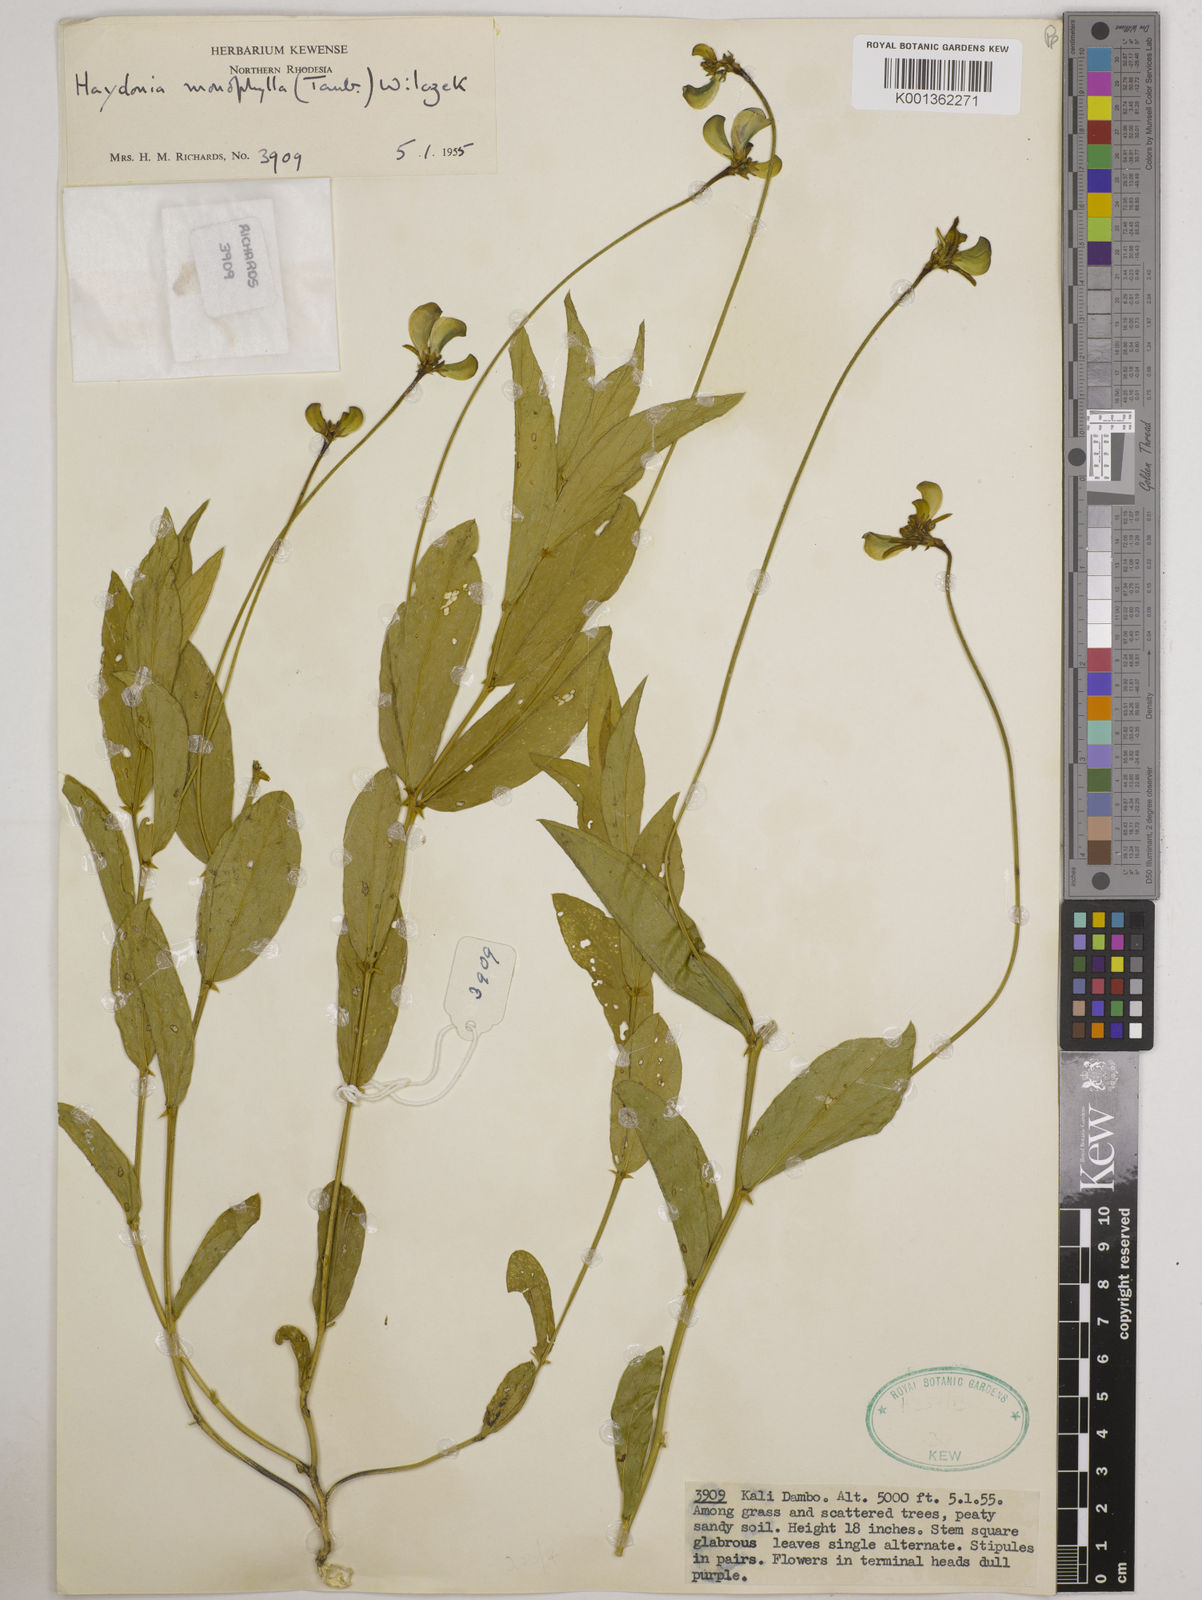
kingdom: Plantae
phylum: Tracheophyta
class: Magnoliopsida
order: Fabales
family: Fabaceae
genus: Vigna
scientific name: Vigna monophylla
